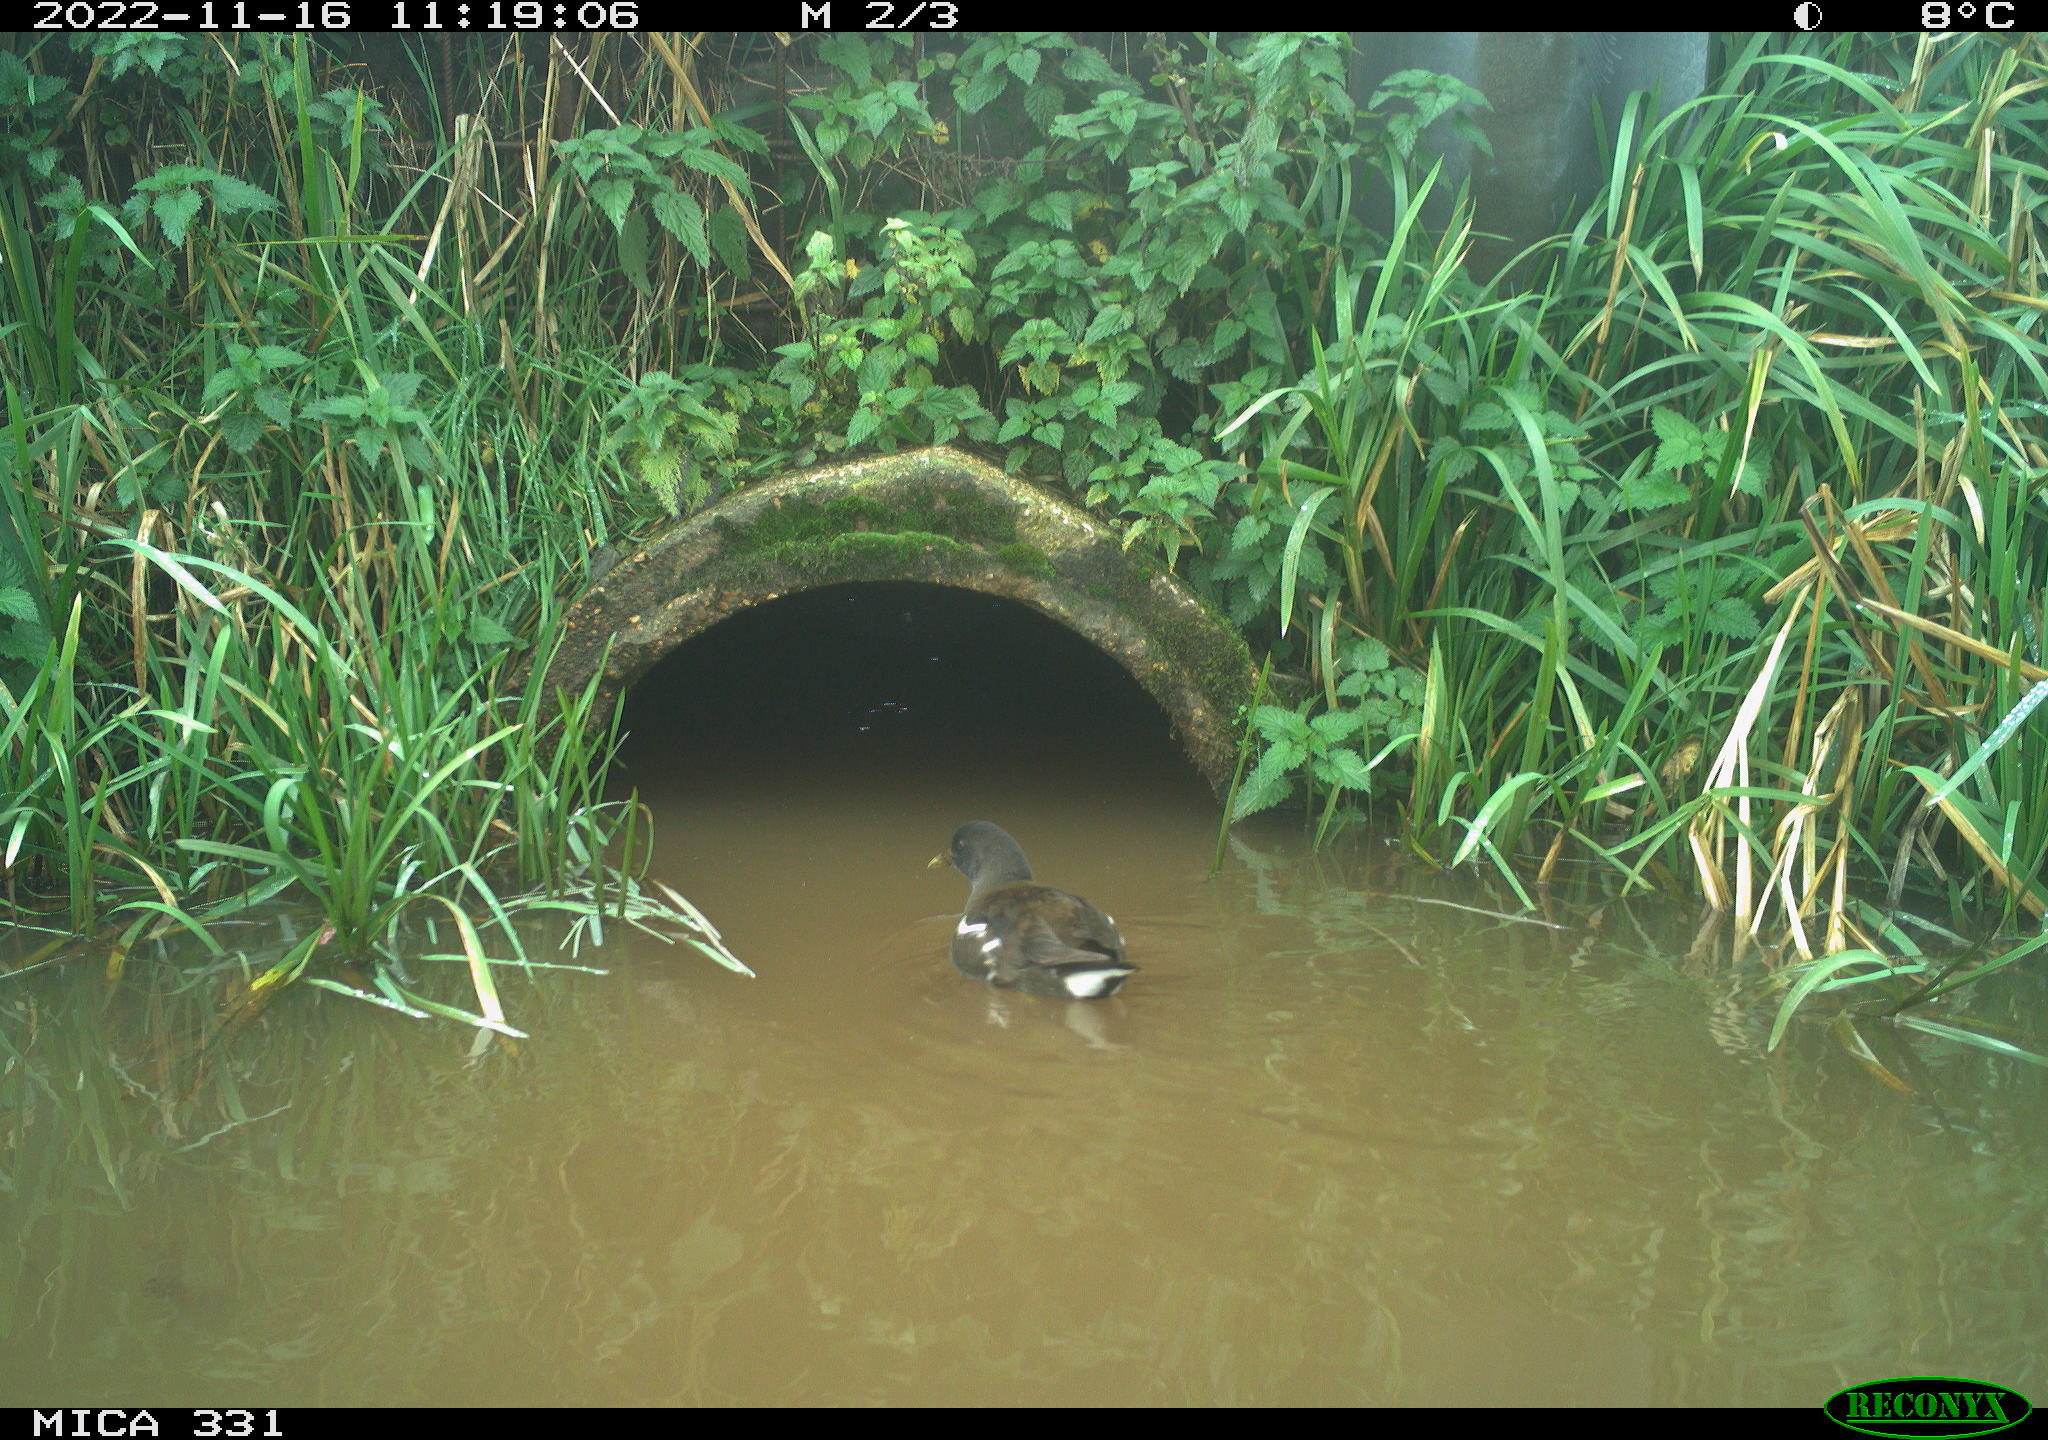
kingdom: Animalia
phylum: Chordata
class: Aves
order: Gruiformes
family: Rallidae
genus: Gallinula
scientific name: Gallinula chloropus
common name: Common moorhen
